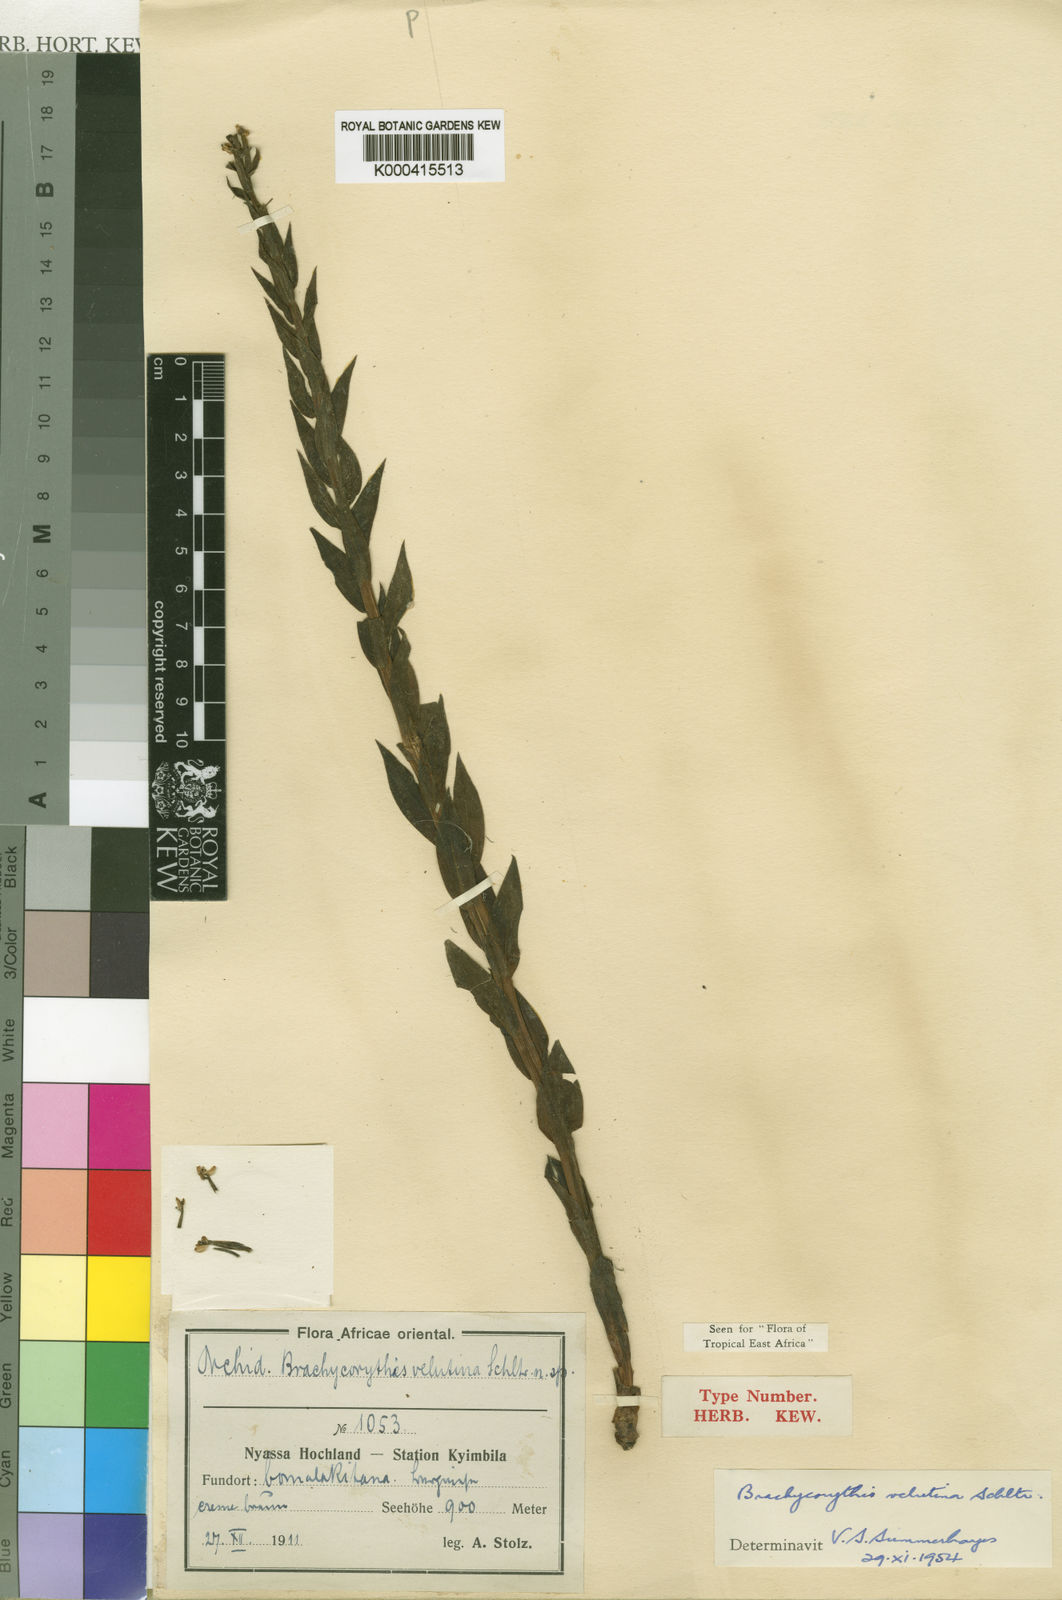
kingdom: Plantae
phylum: Tracheophyta
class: Liliopsida
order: Asparagales
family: Orchidaceae
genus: Brachycorythis
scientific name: Brachycorythis velutina
